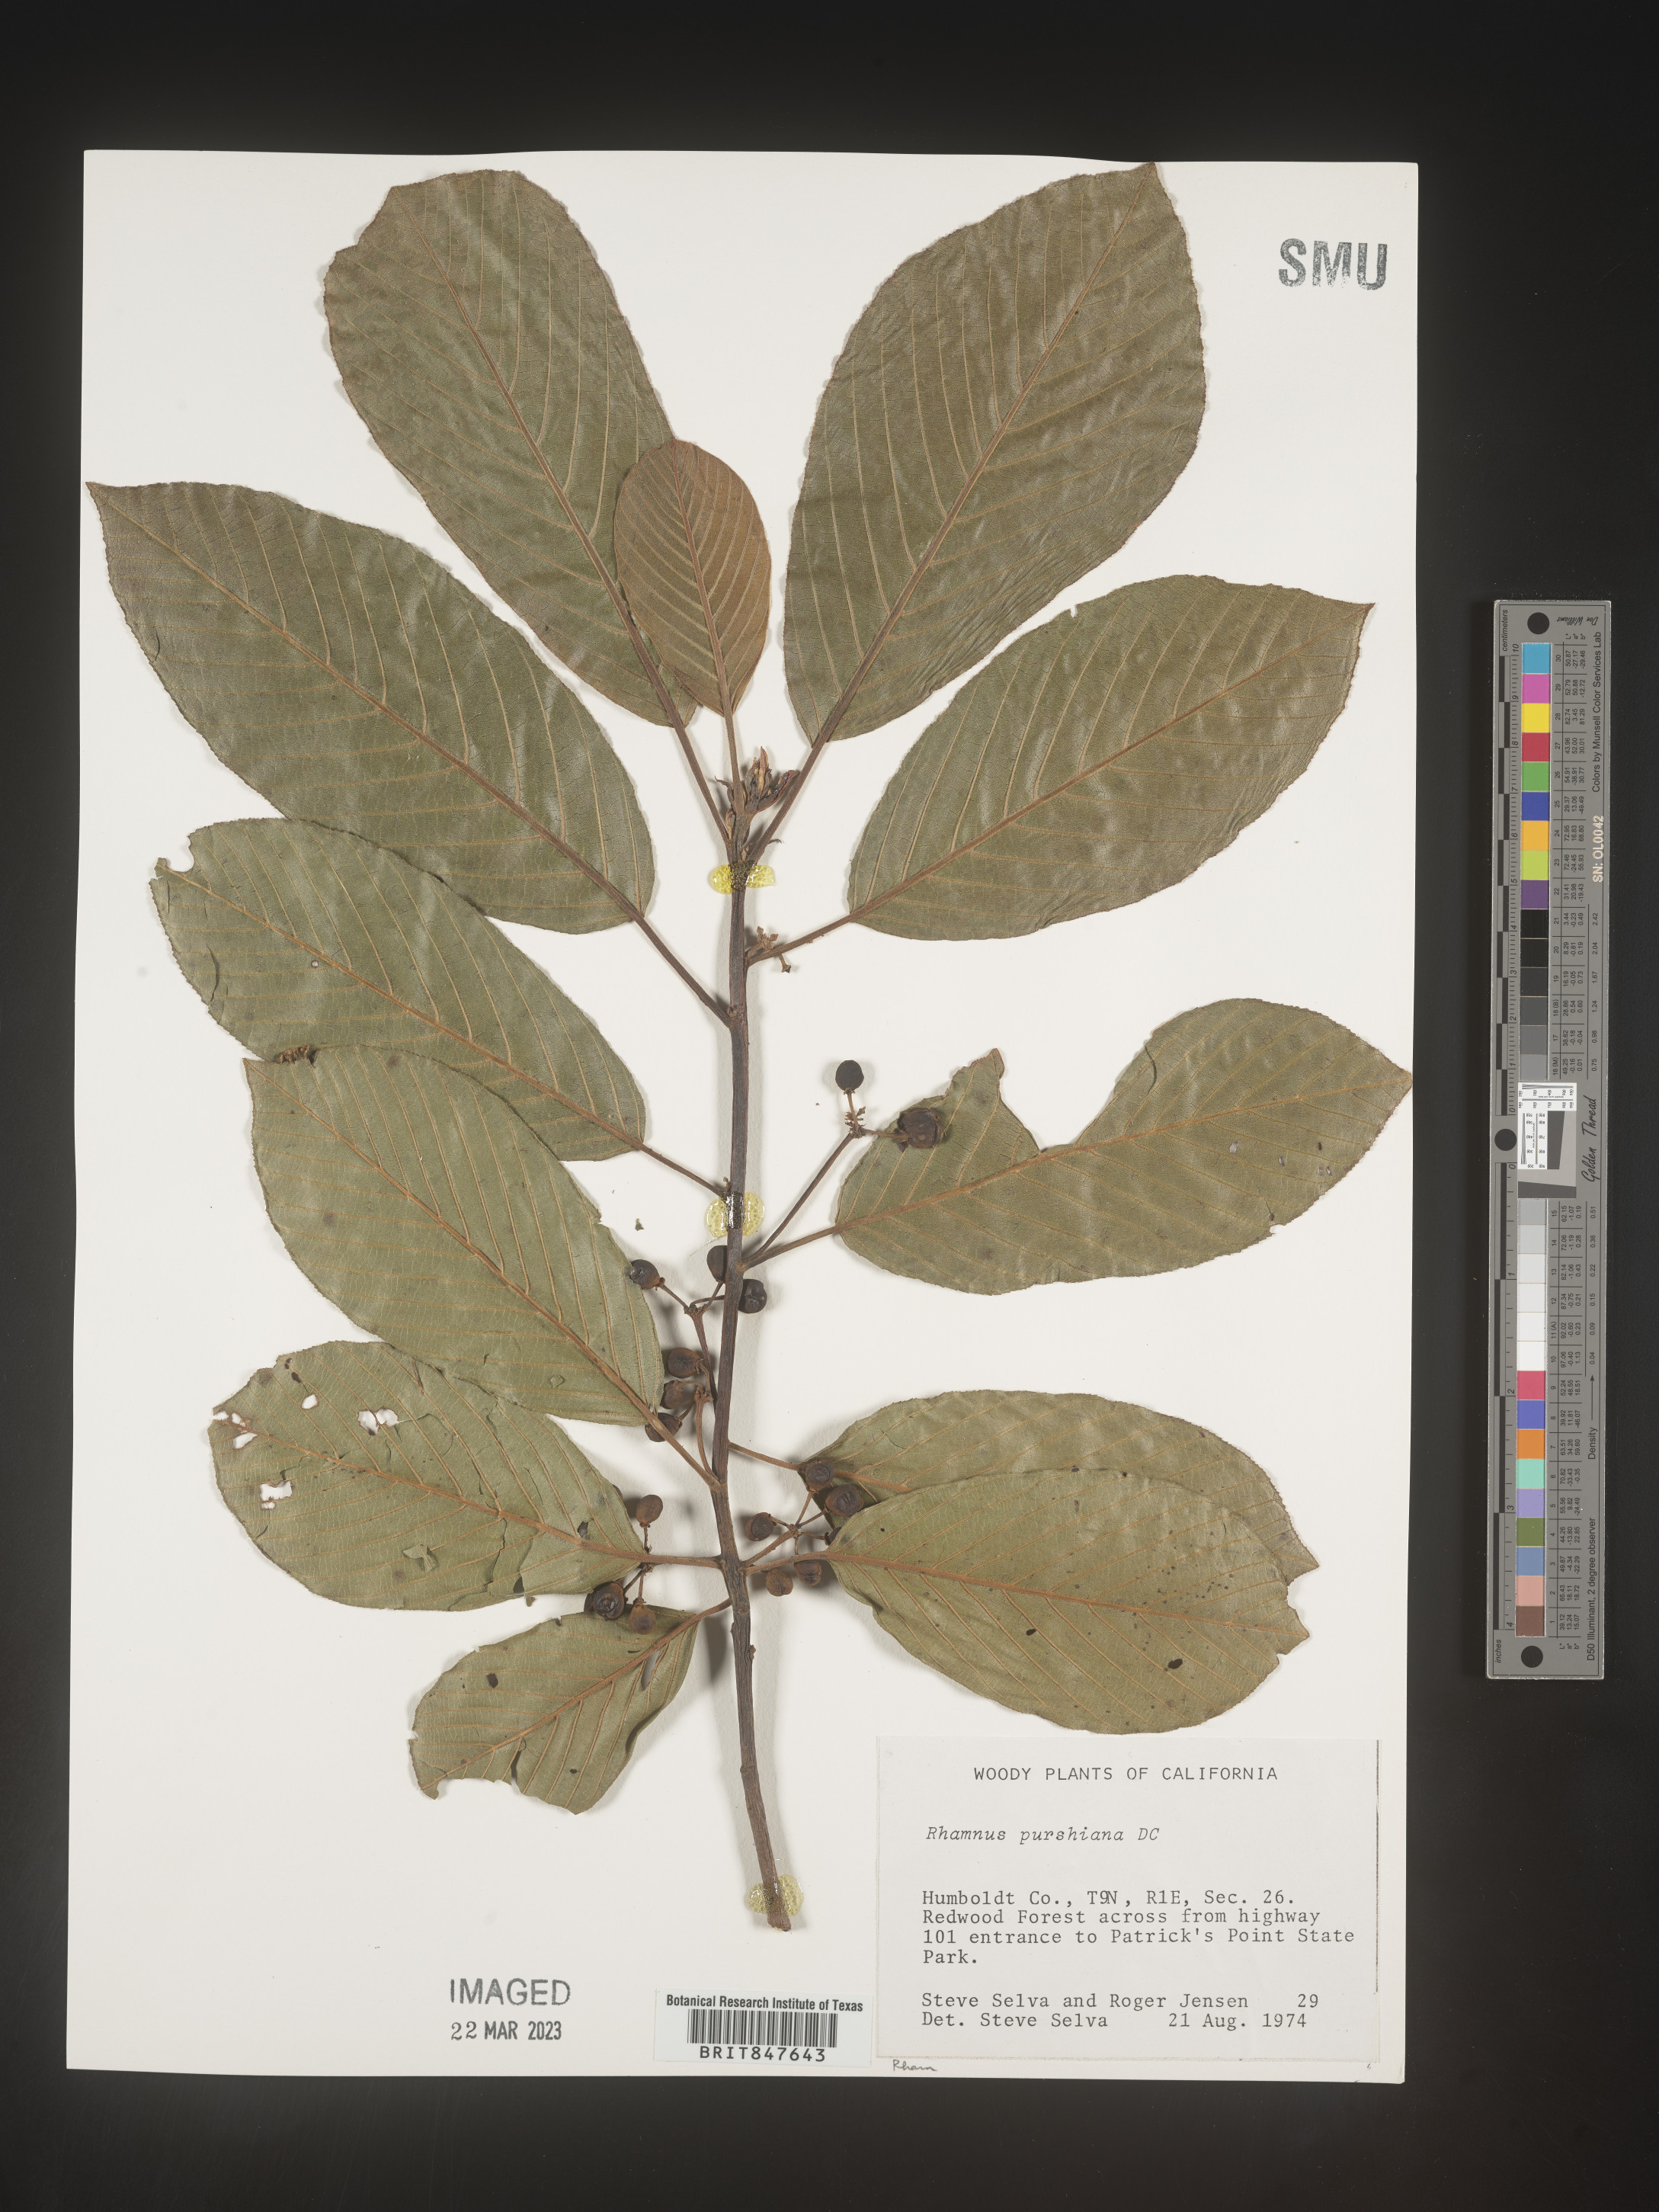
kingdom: Plantae
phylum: Tracheophyta
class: Magnoliopsida
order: Rosales
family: Rhamnaceae
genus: Frangula
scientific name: Frangula purshiana
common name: Cascara buckthorn
